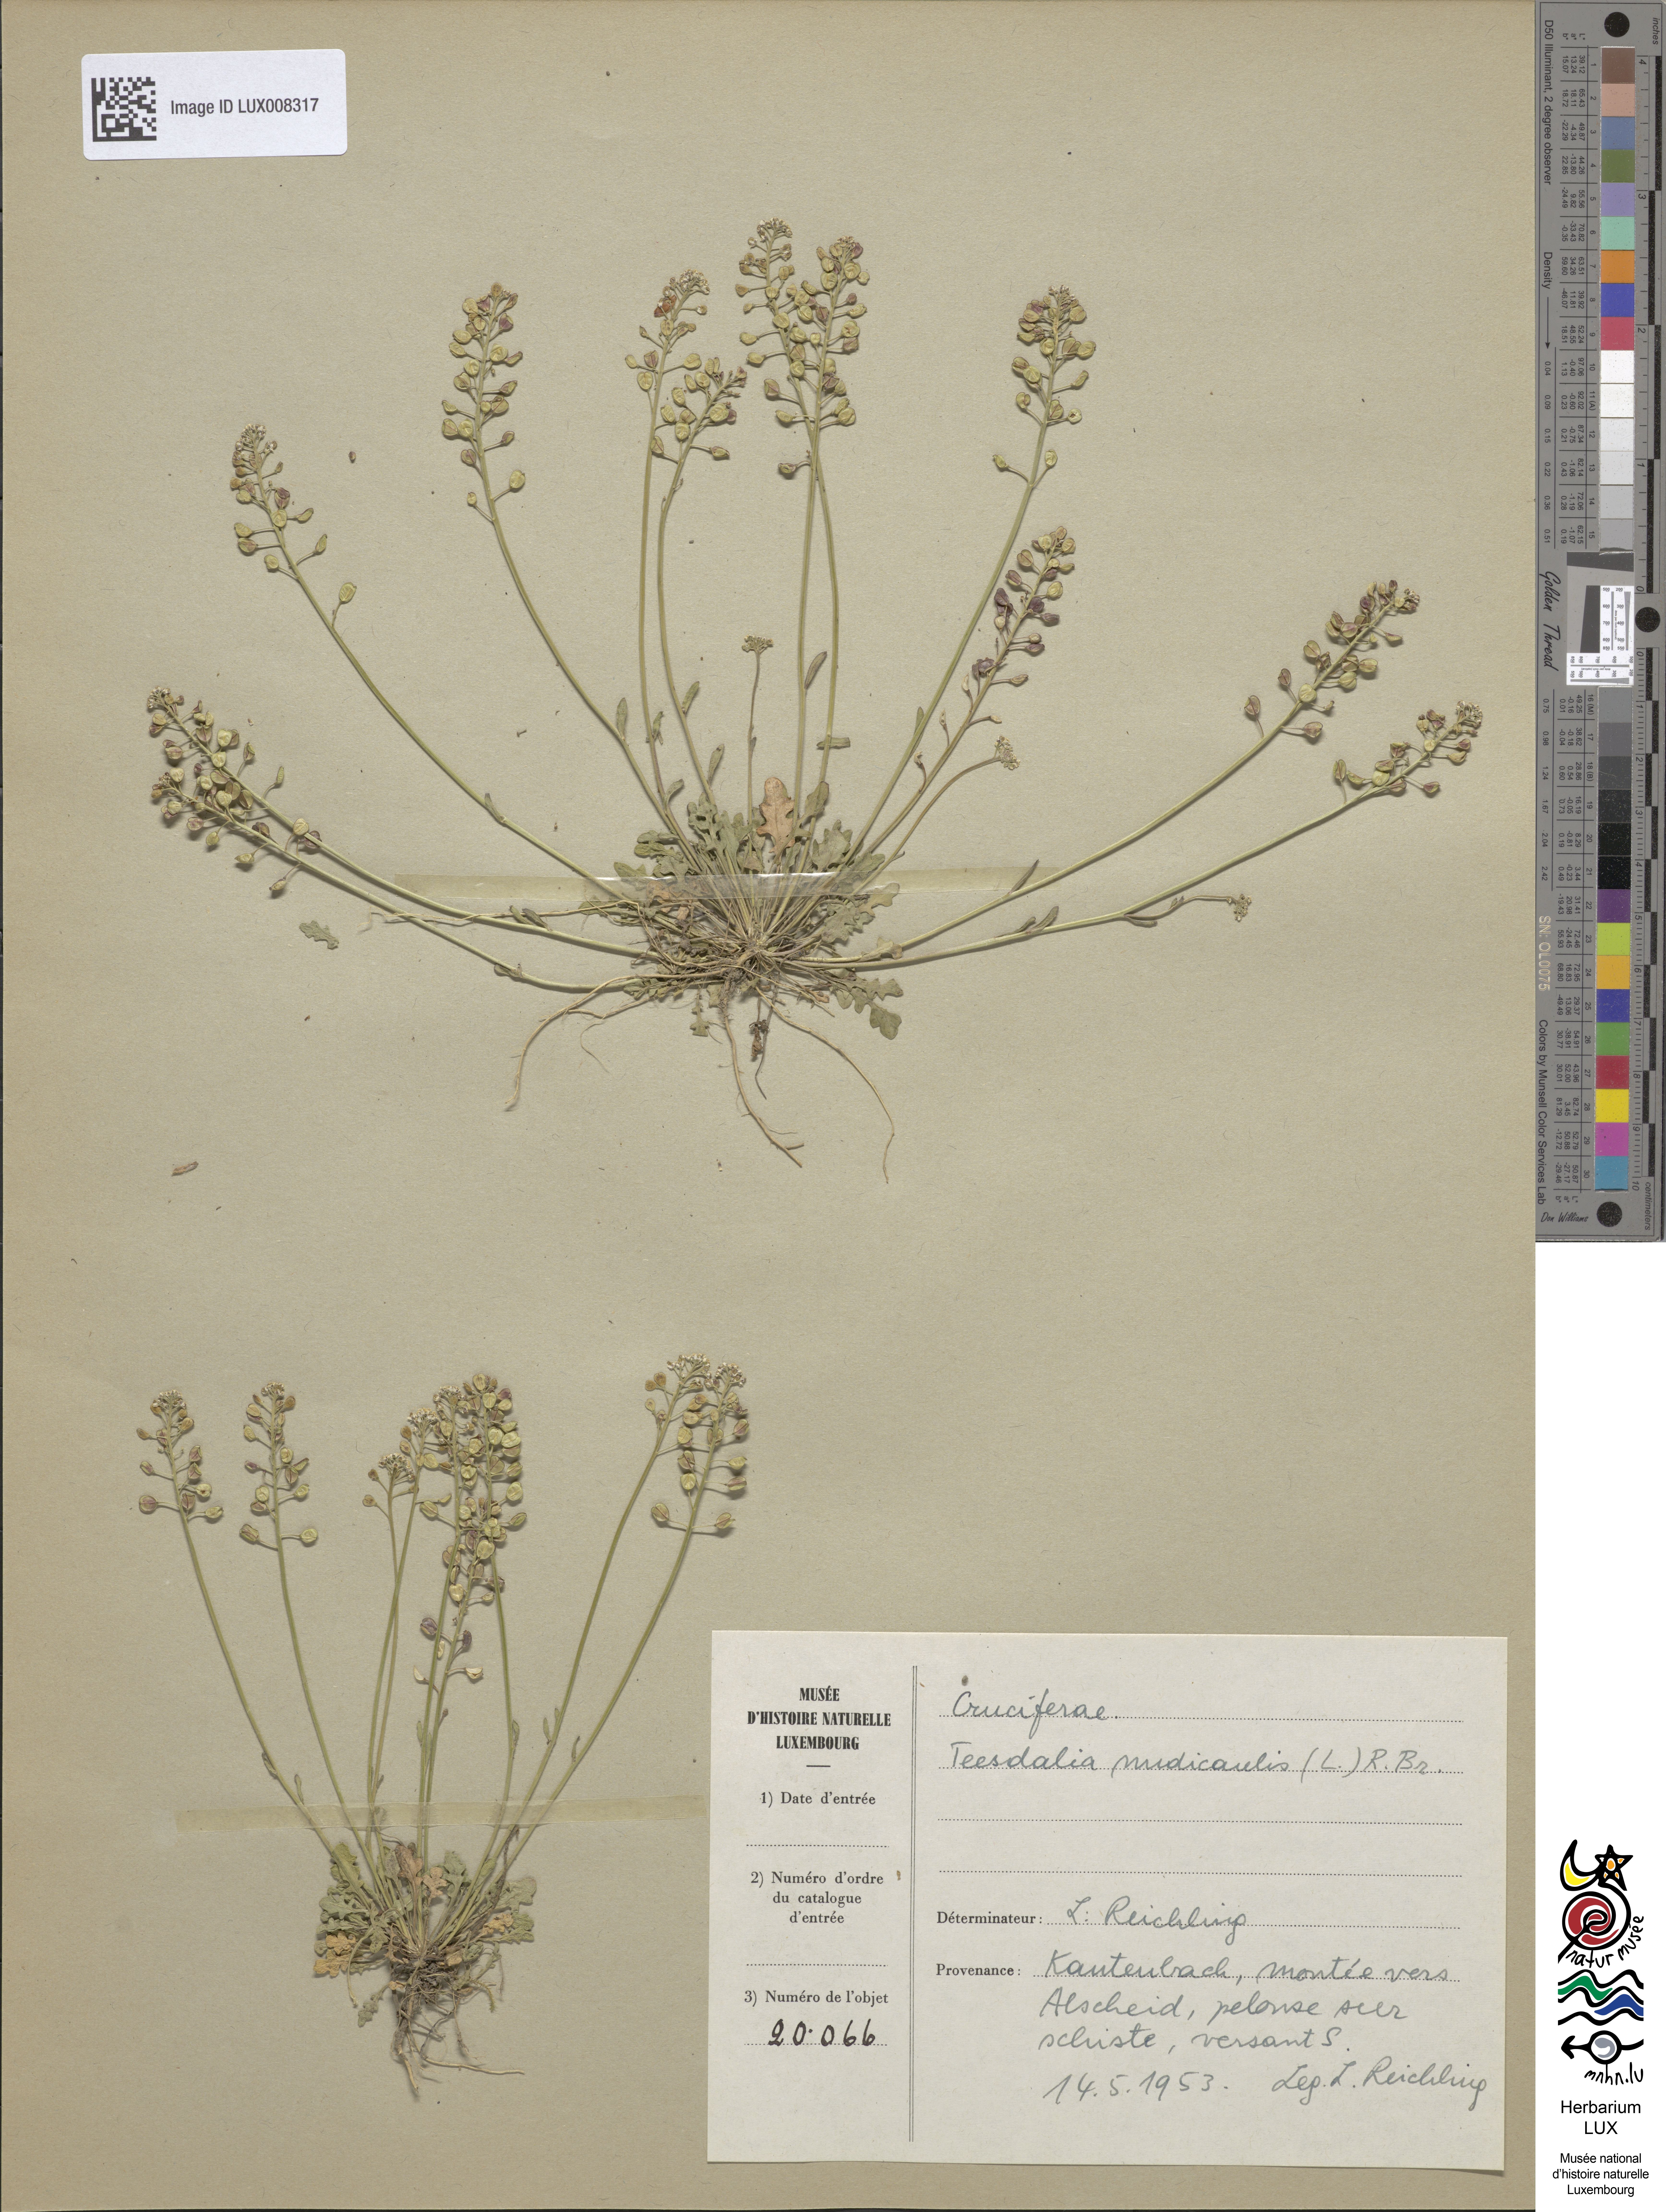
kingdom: Plantae
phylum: Tracheophyta
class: Magnoliopsida
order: Brassicales
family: Brassicaceae
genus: Teesdalia
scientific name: Teesdalia nudicaulis
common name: Shepherd's cress
